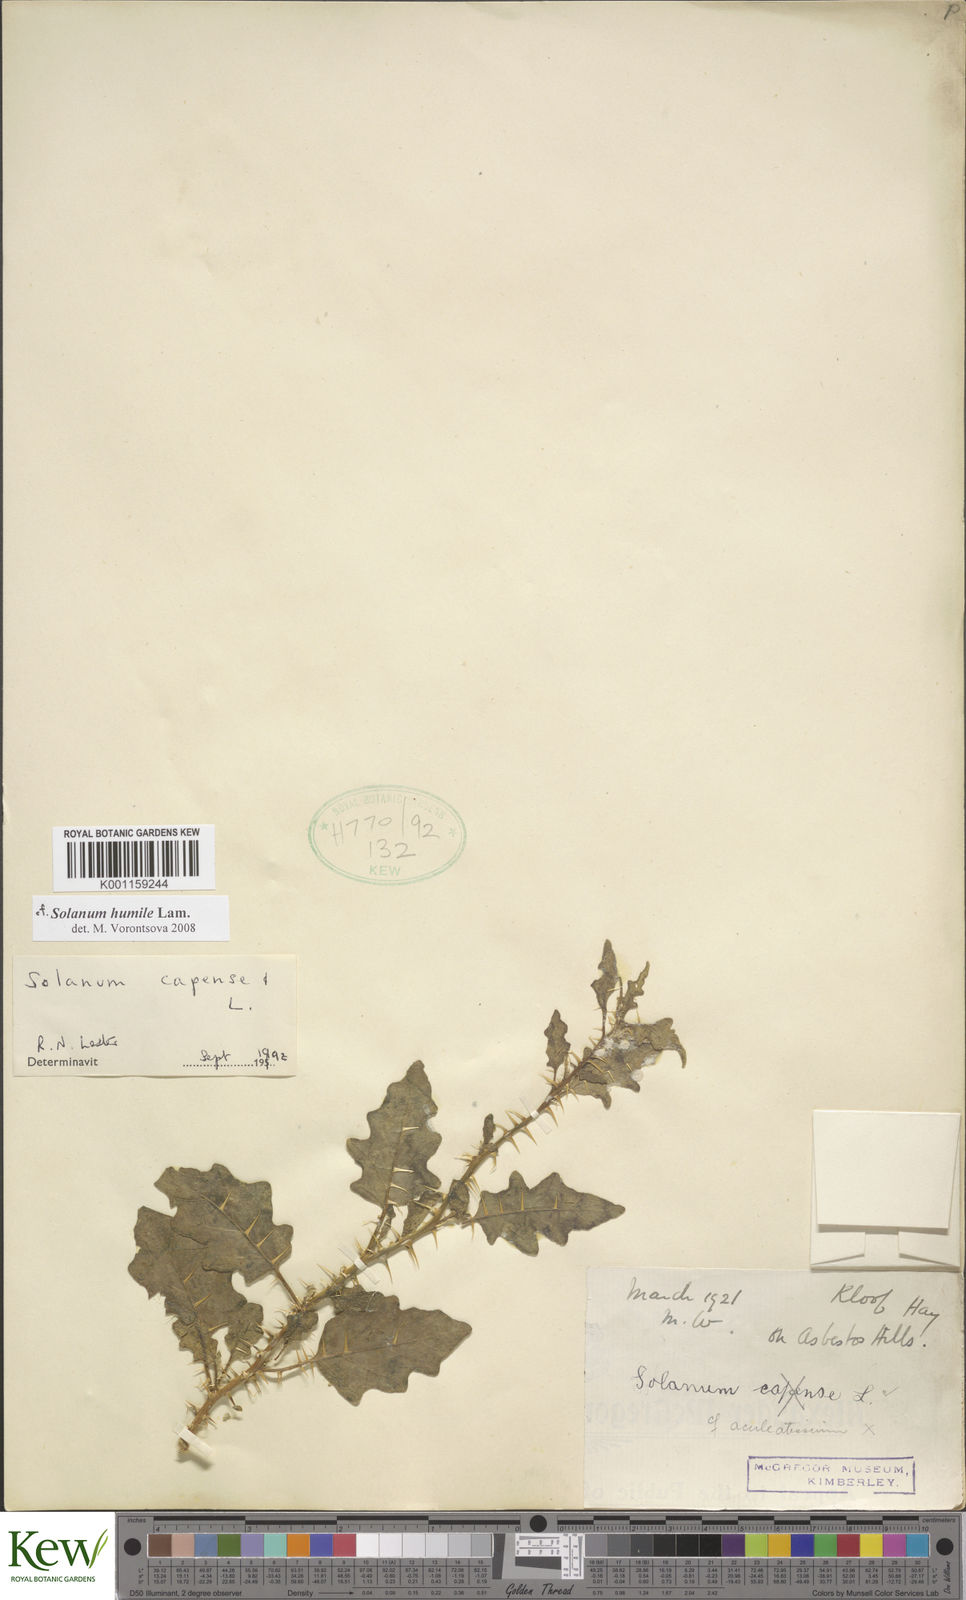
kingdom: Plantae
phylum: Tracheophyta
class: Magnoliopsida
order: Solanales
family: Solanaceae
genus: Solanum
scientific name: Solanum humile
